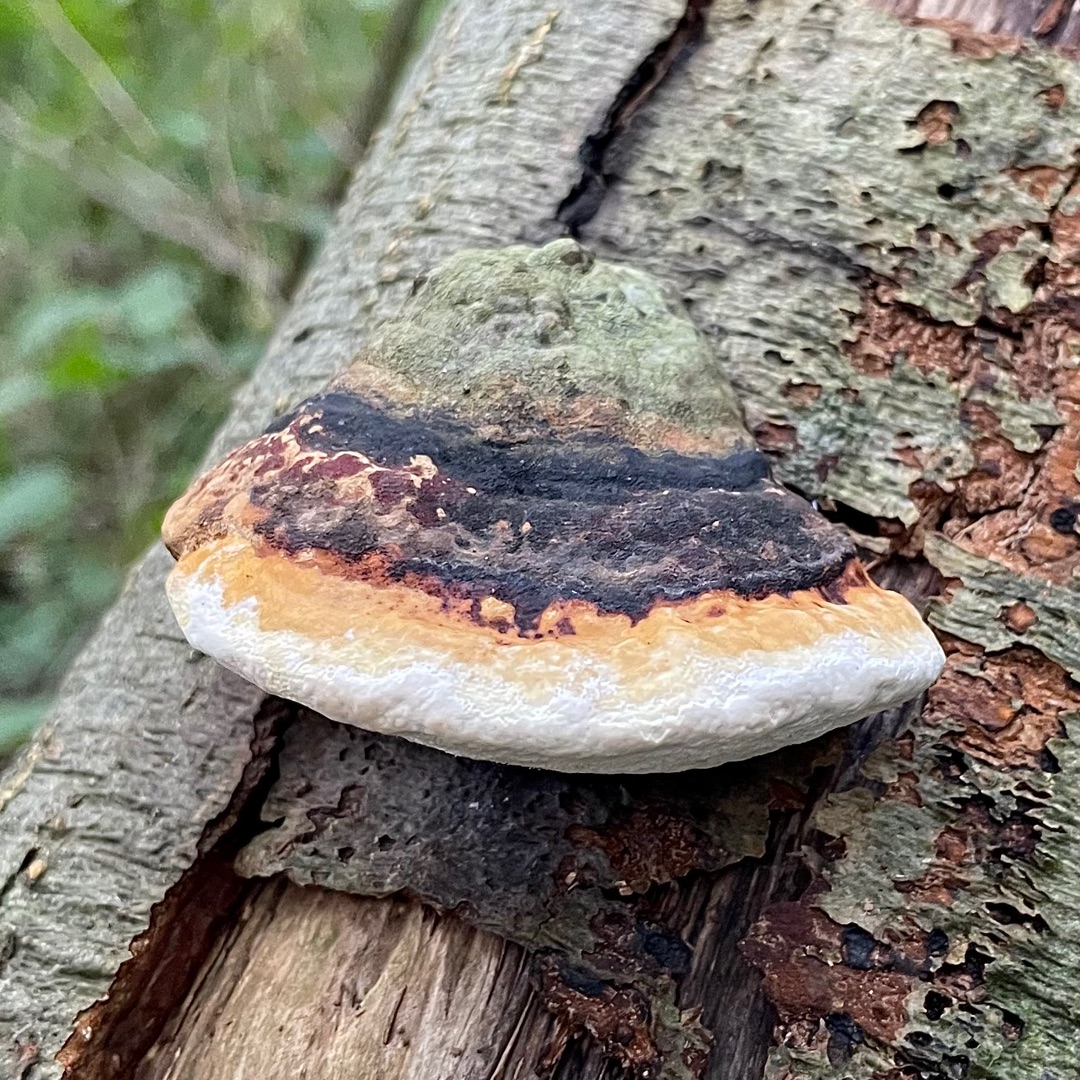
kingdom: Fungi
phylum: Basidiomycota
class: Agaricomycetes
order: Polyporales
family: Fomitopsidaceae
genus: Fomitopsis
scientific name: Fomitopsis pinicola
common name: Randbæltet hovporesvamp
